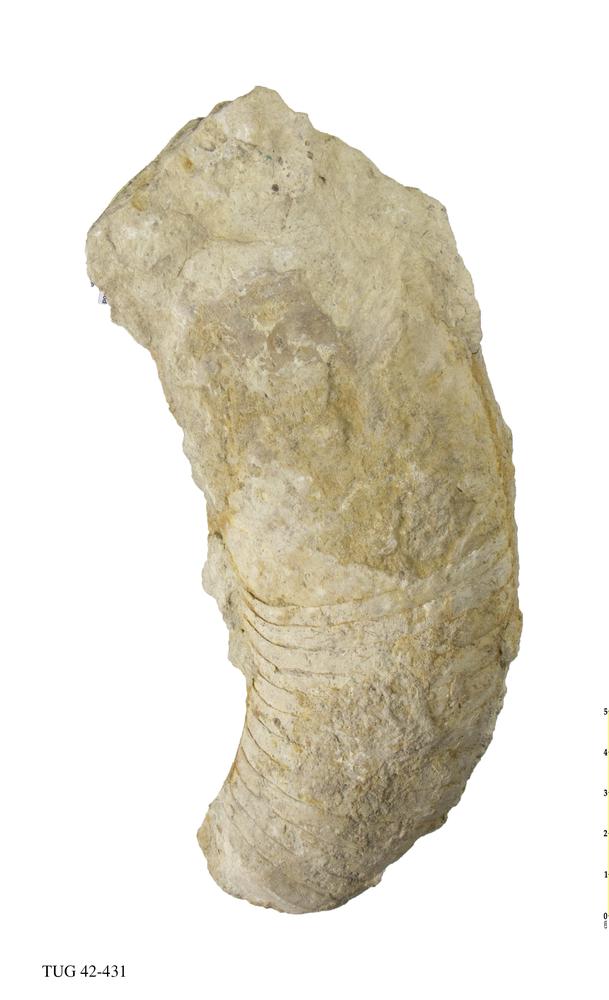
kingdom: Animalia
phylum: Mollusca
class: Cephalopoda
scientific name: Cephalopoda
